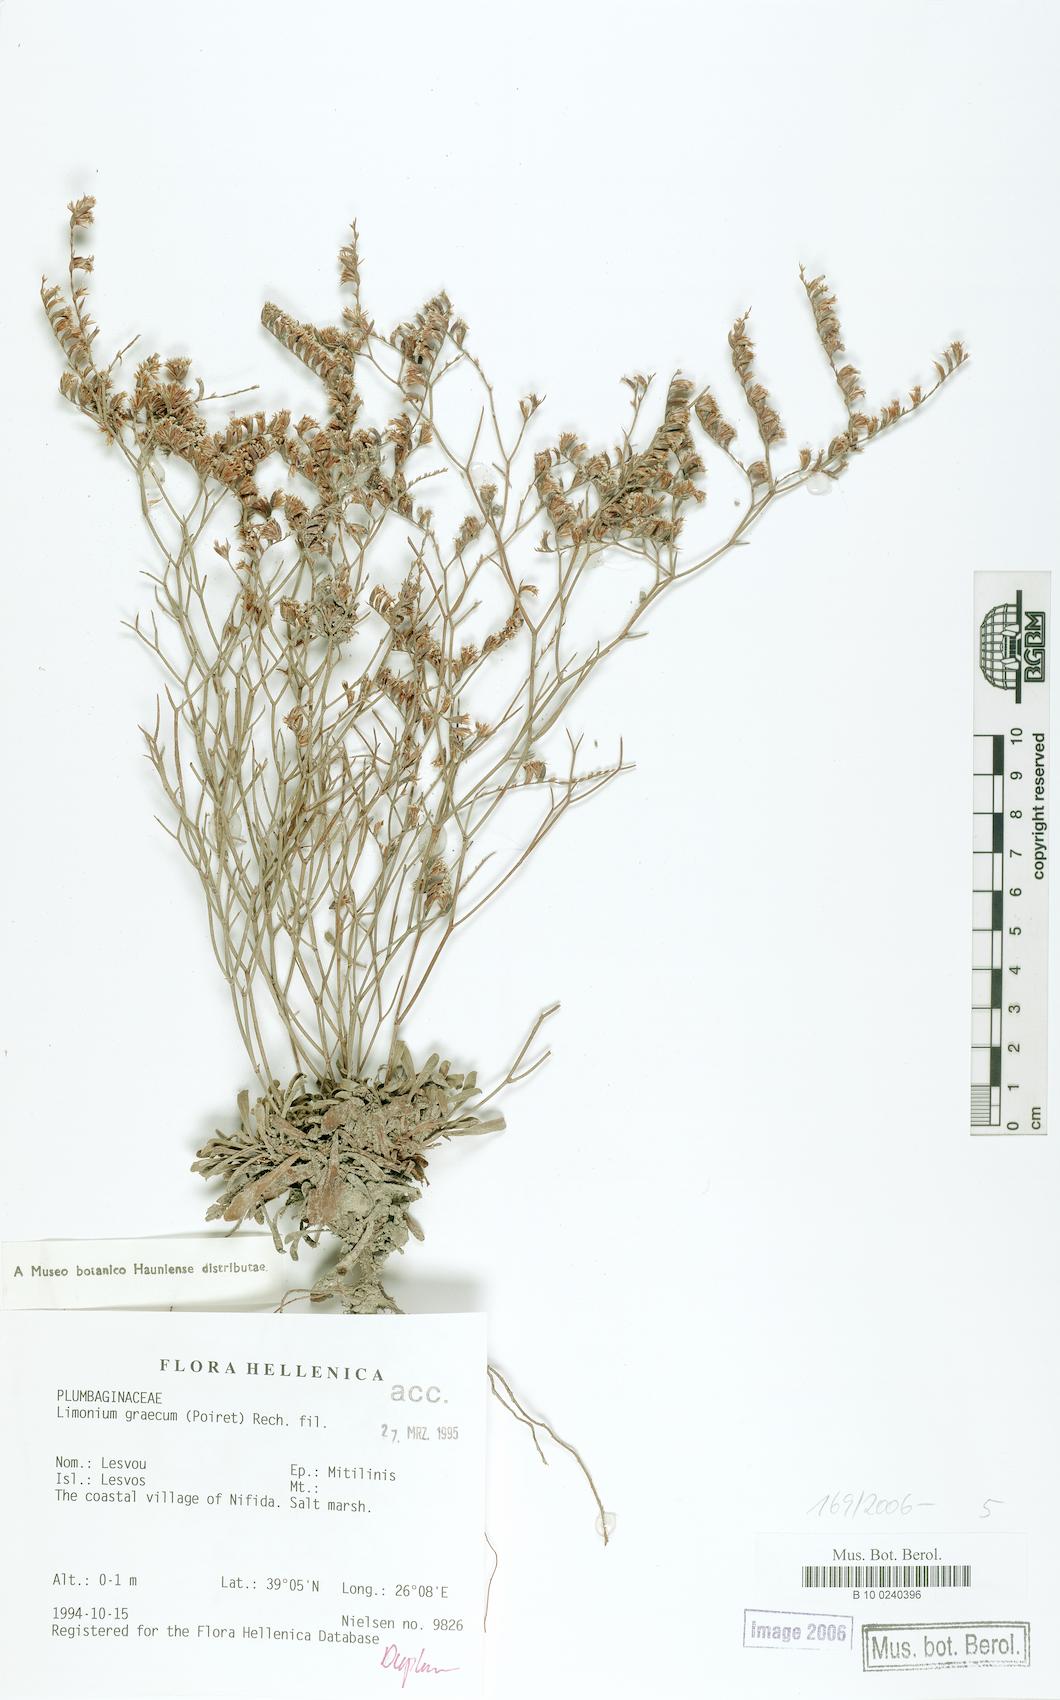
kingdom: Plantae
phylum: Tracheophyta
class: Magnoliopsida
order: Caryophyllales
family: Plumbaginaceae
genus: Limonium
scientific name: Limonium graecum
